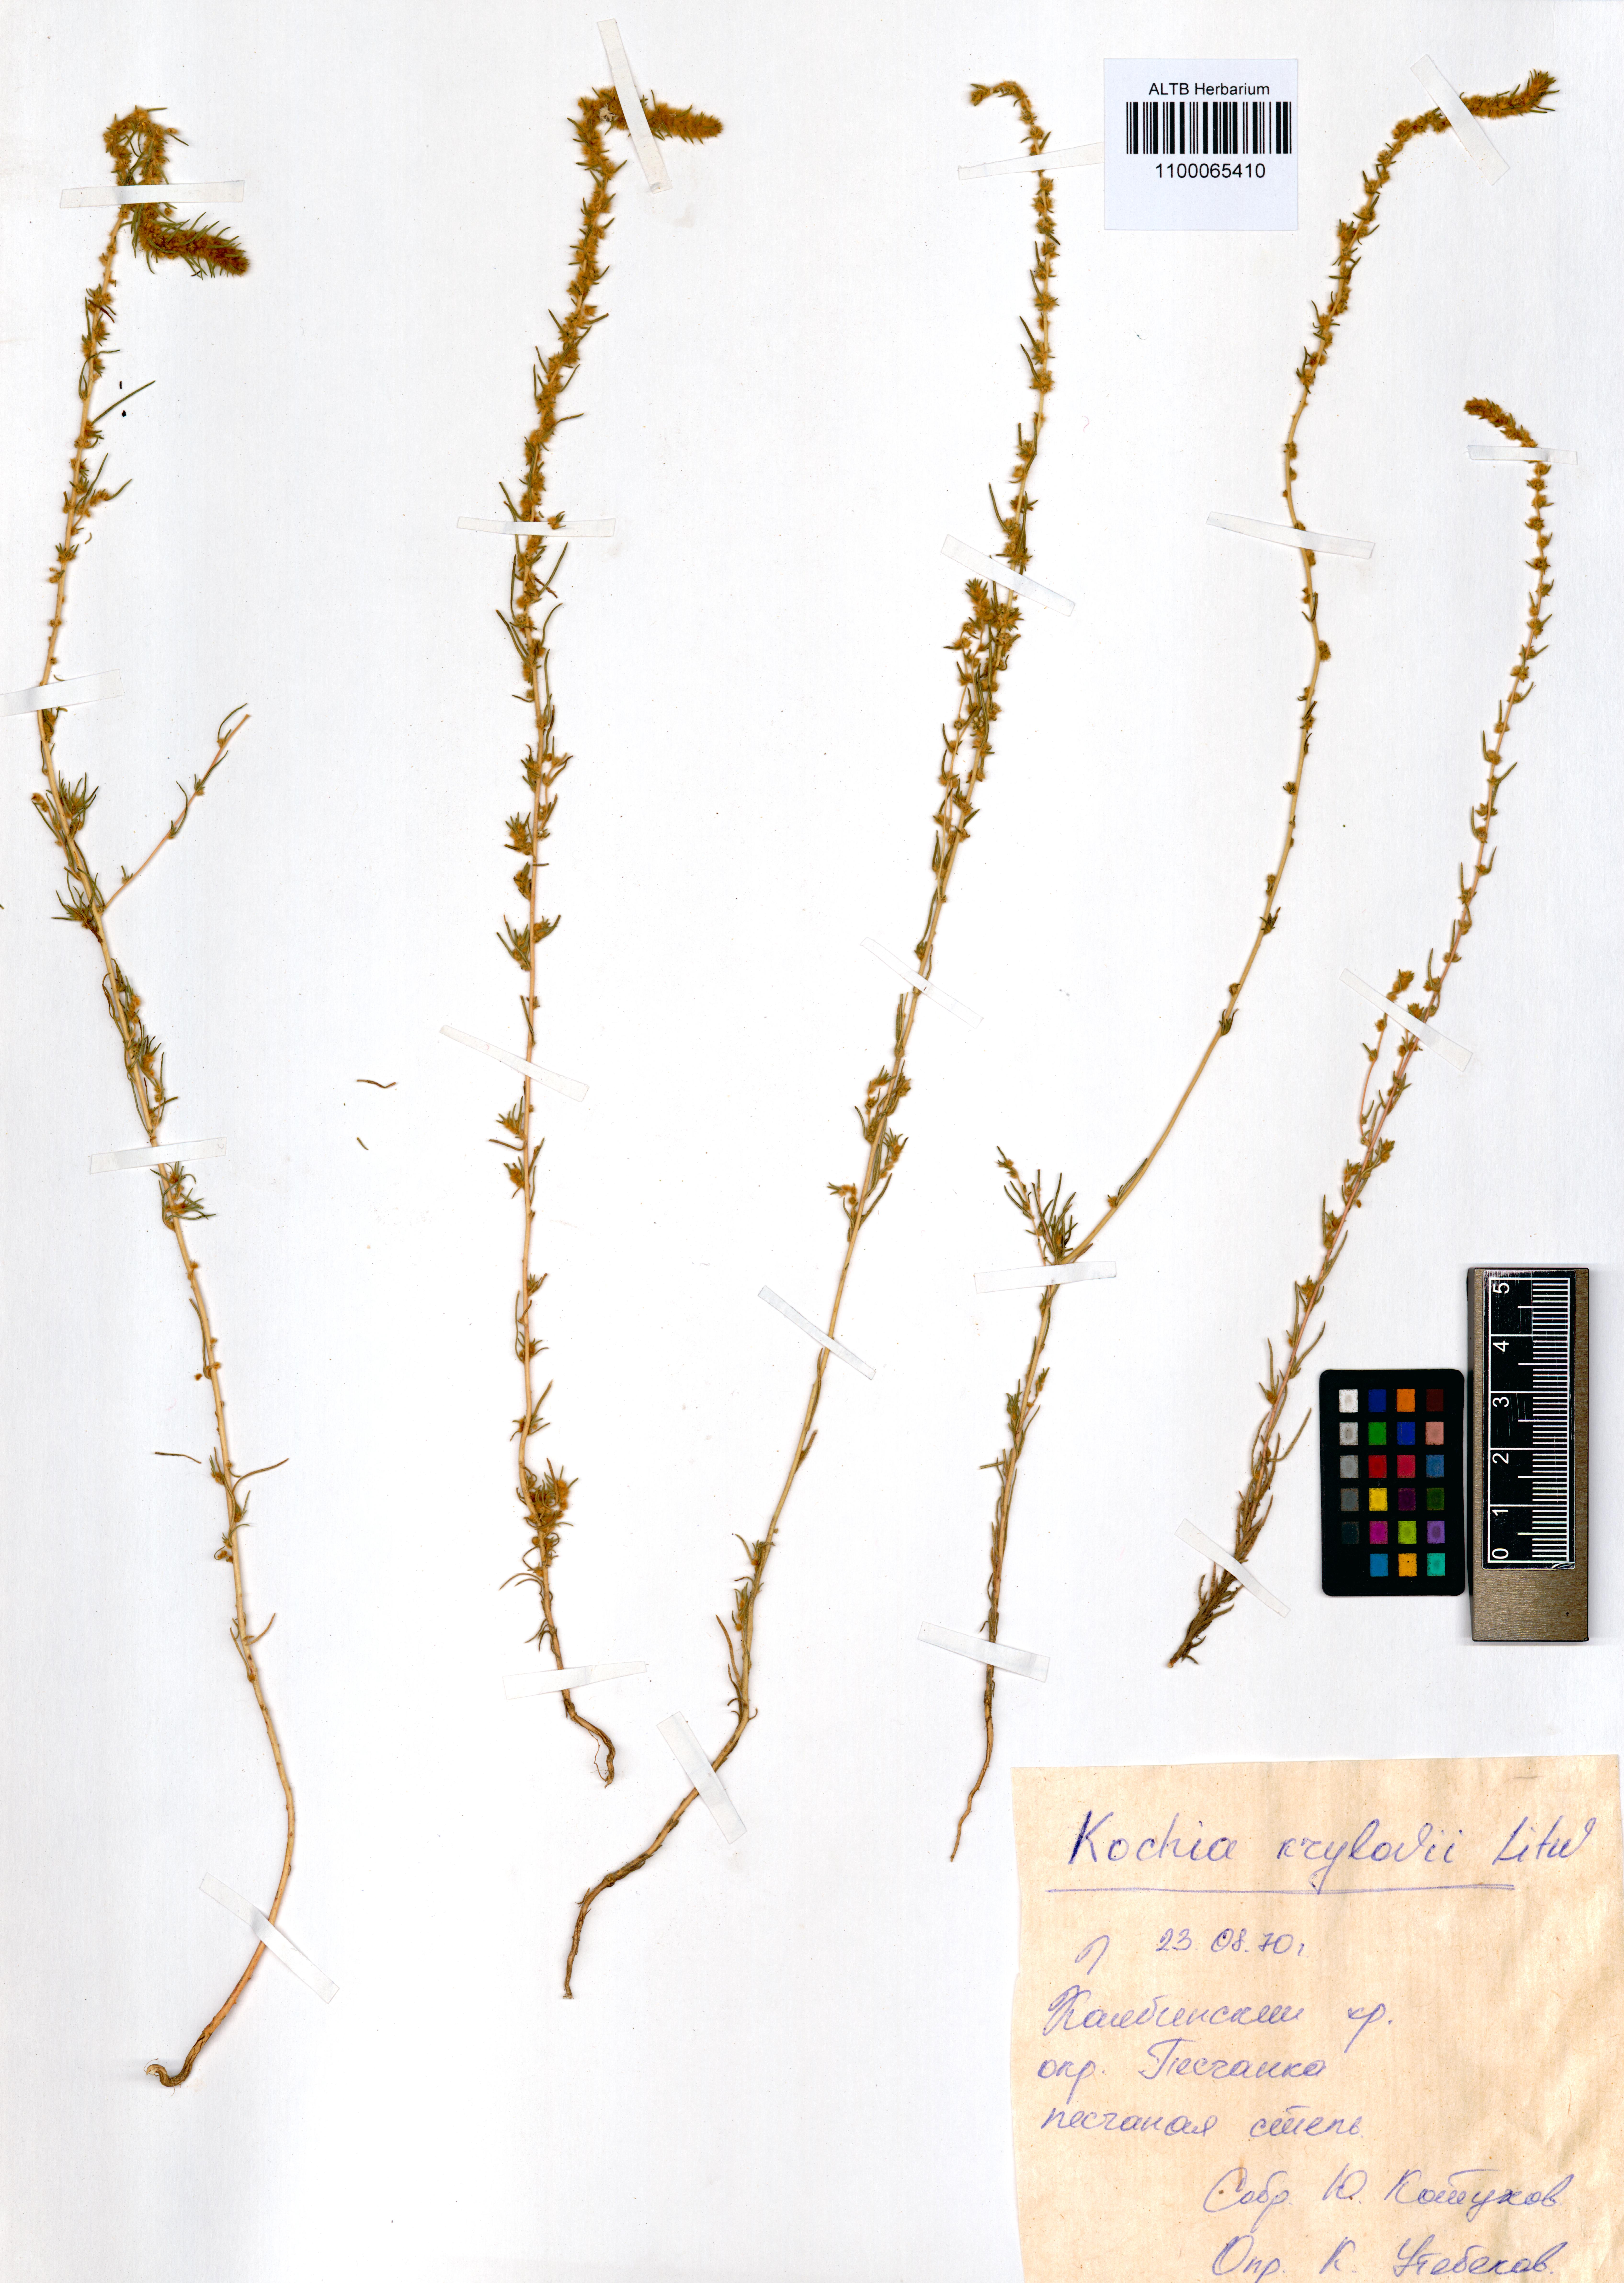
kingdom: Plantae
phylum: Tracheophyta
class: Magnoliopsida
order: Caryophyllales
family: Amaranthaceae
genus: Grubovia
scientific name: Grubovia krylowii
